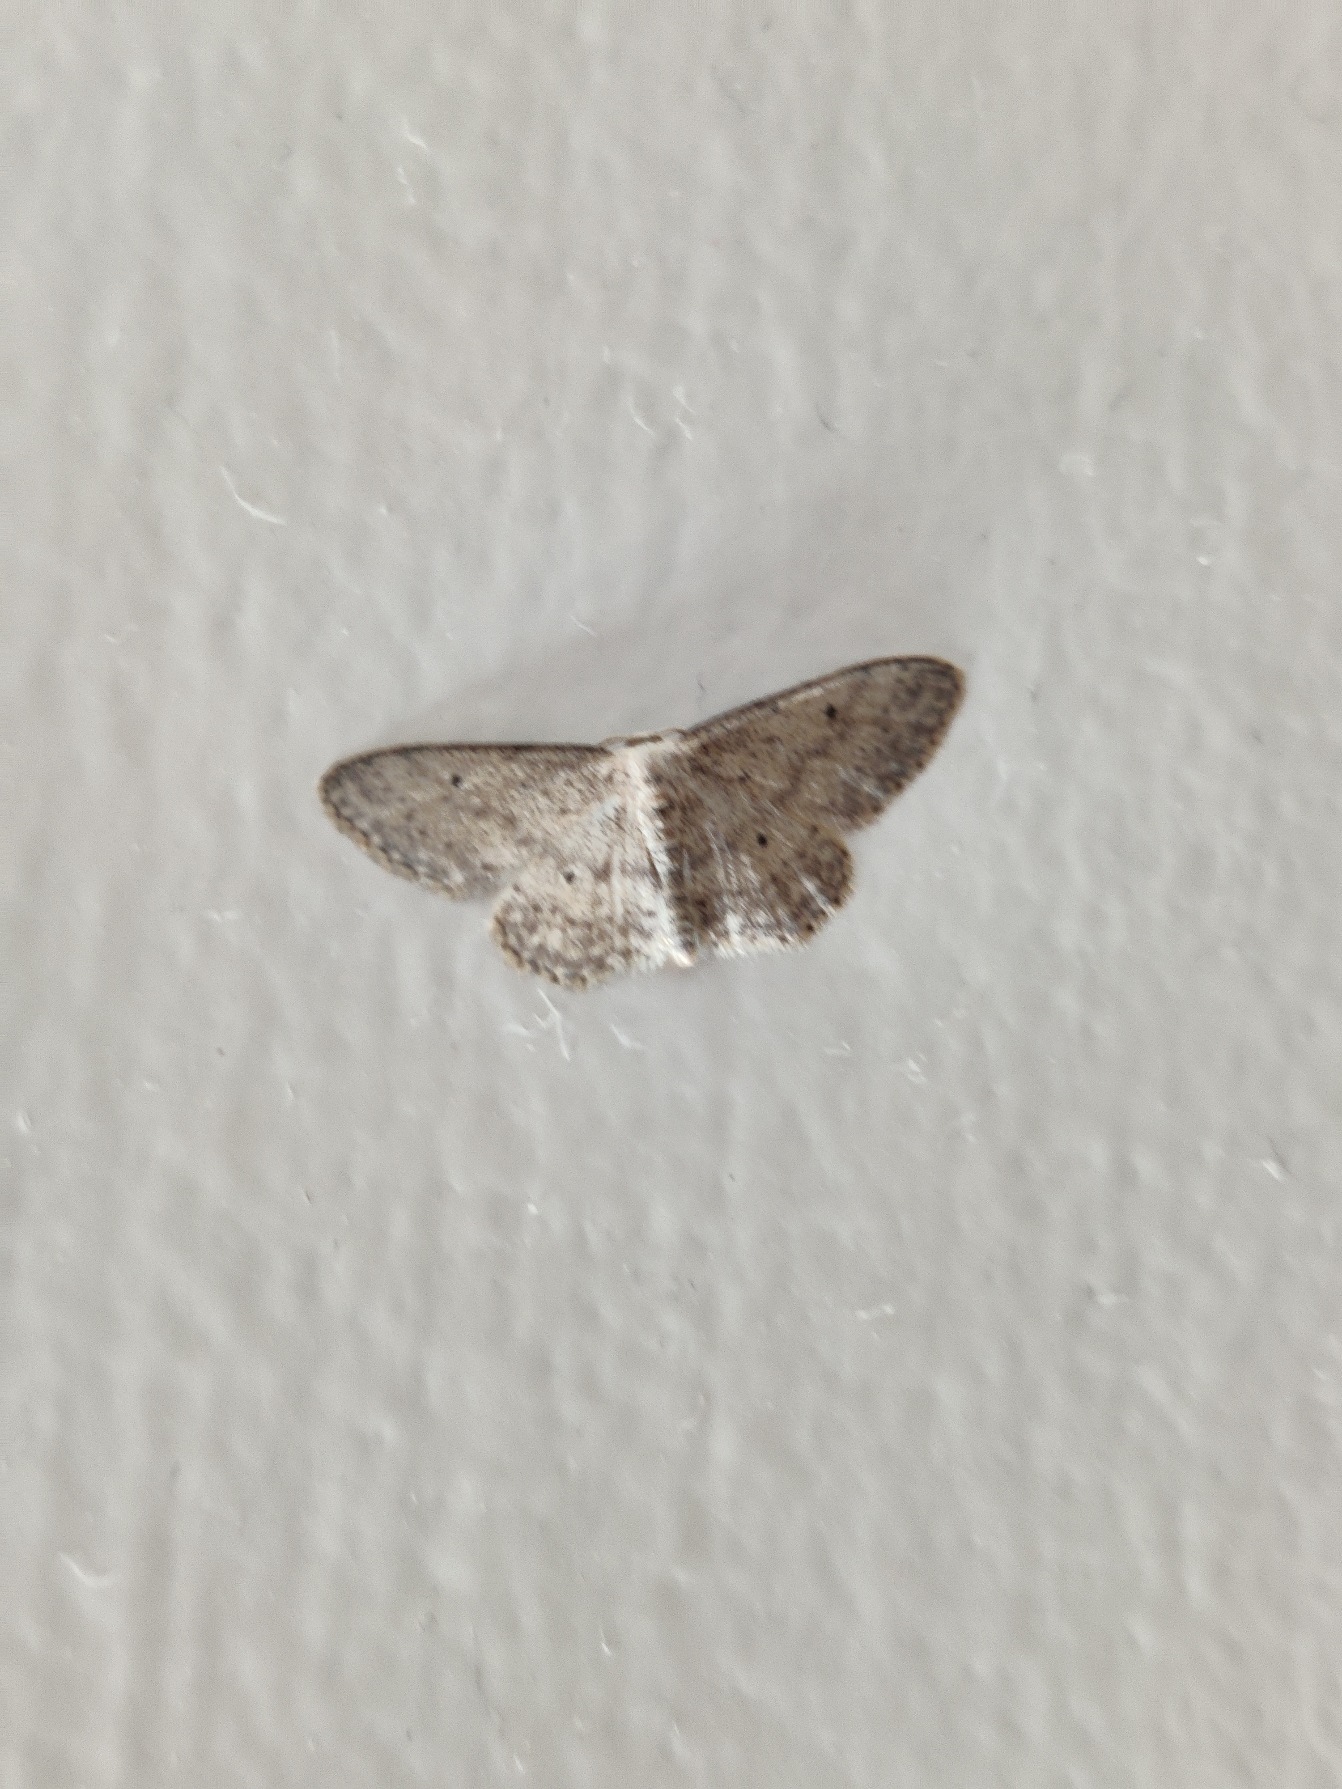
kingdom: Animalia
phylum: Arthropoda
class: Insecta
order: Lepidoptera
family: Geometridae
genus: Idaea
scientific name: Idaea seriata
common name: Gråplettet løvmåler
